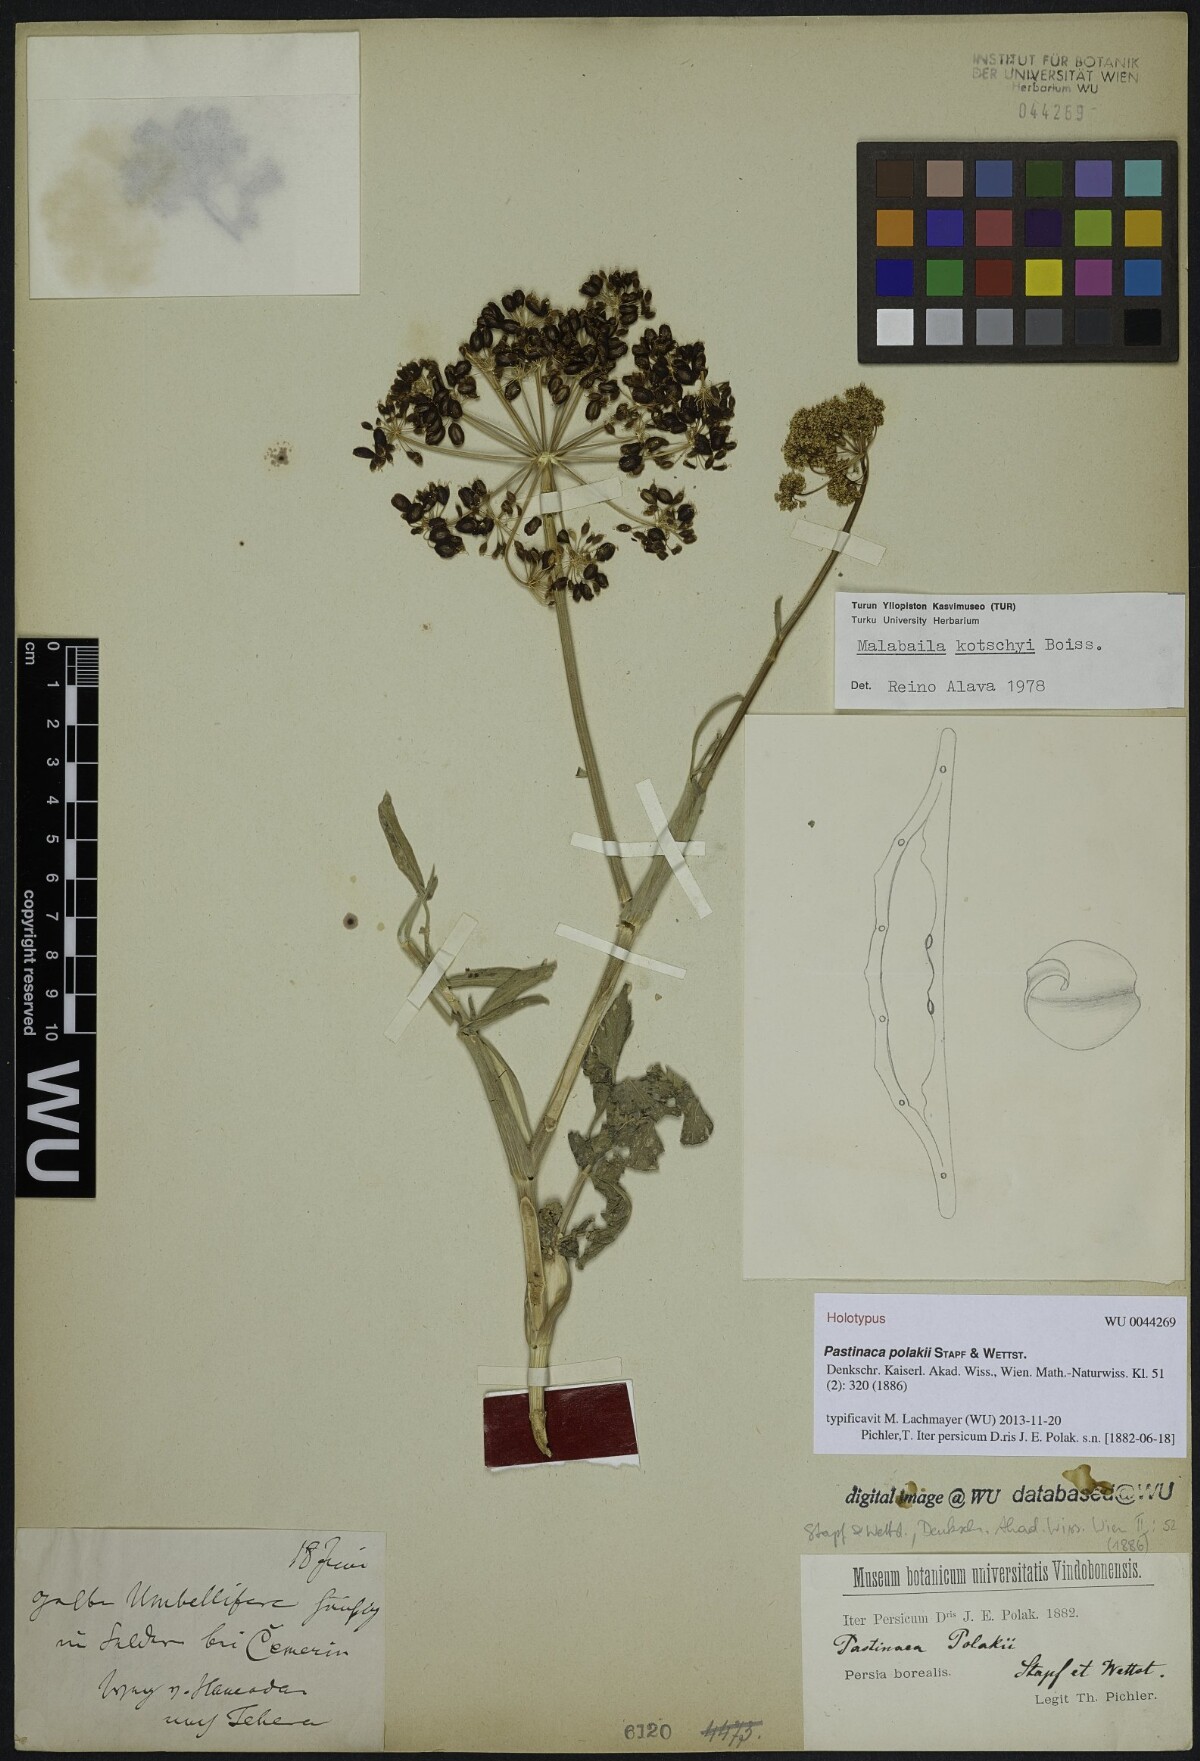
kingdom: Plantae
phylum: Tracheophyta
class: Magnoliopsida
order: Apiales
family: Apiaceae
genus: Leiotulus
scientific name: Leiotulus kotschyi
